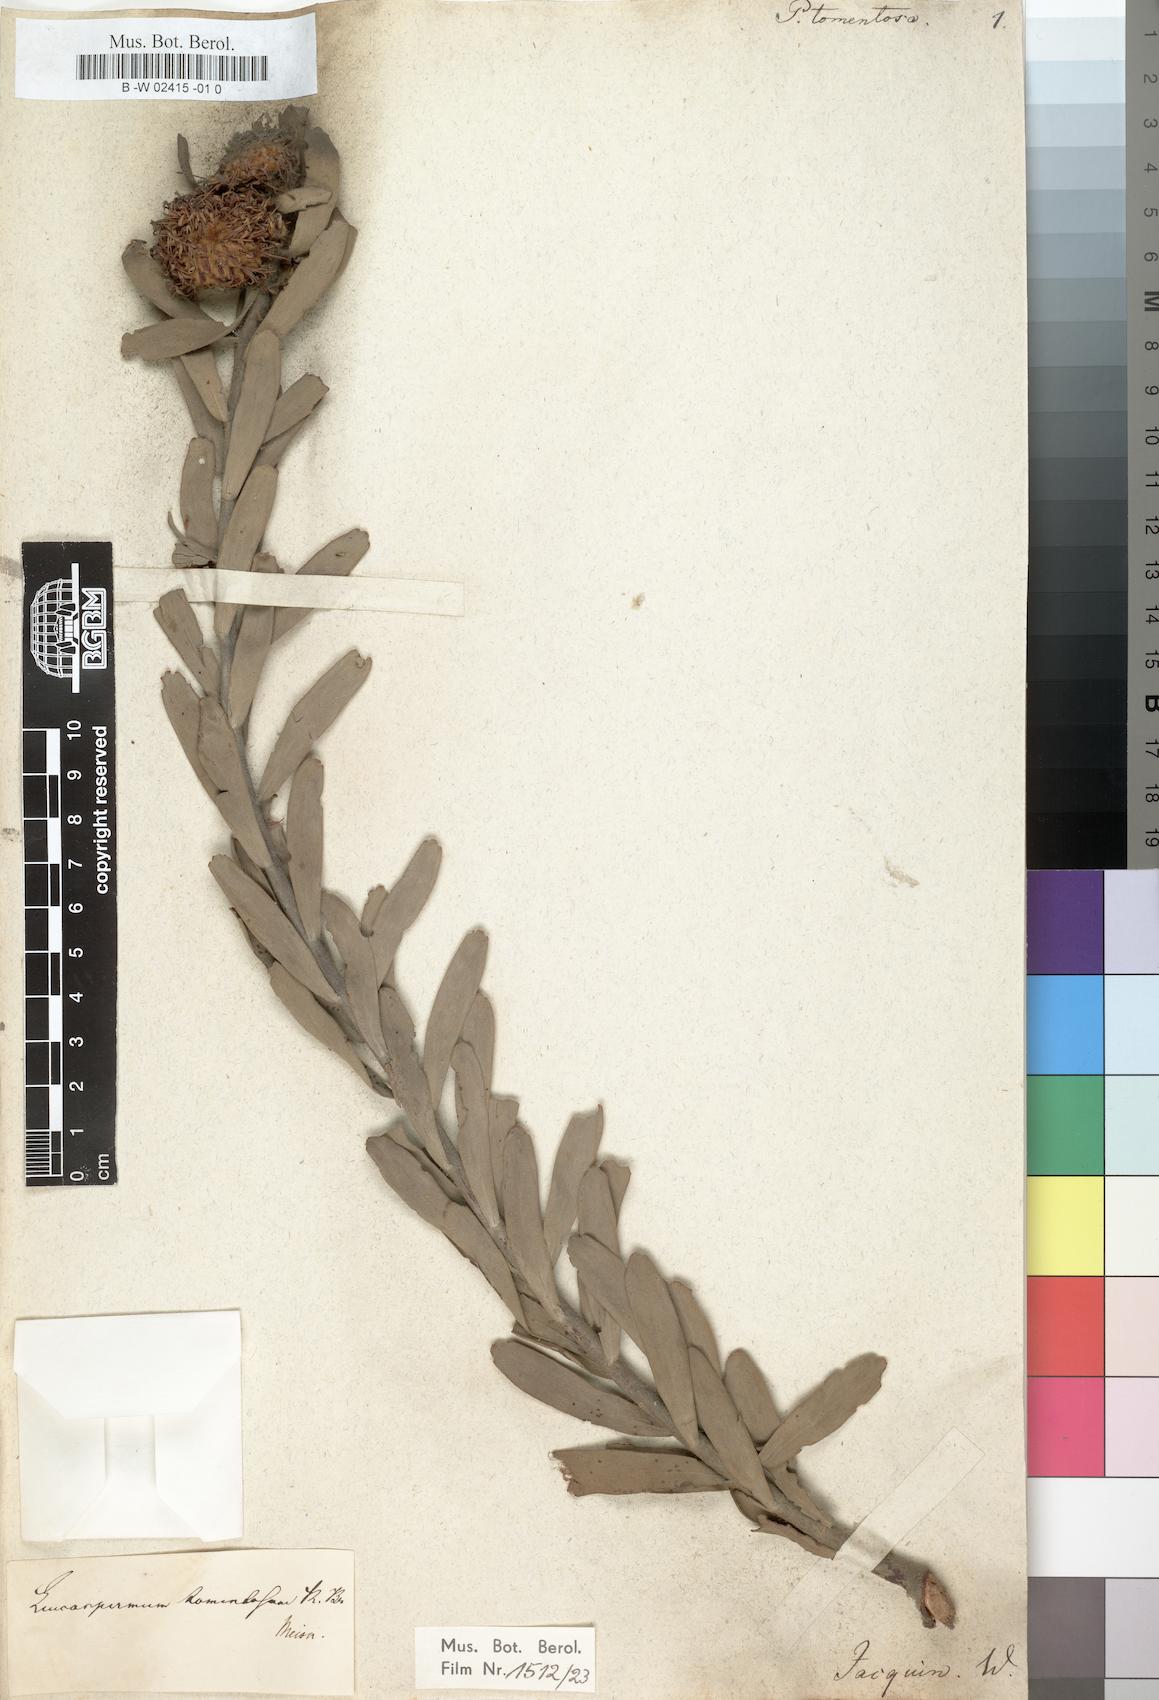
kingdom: Plantae
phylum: Tracheophyta
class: Magnoliopsida
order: Proteales
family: Proteaceae
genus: Leucospermum
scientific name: Leucospermum
